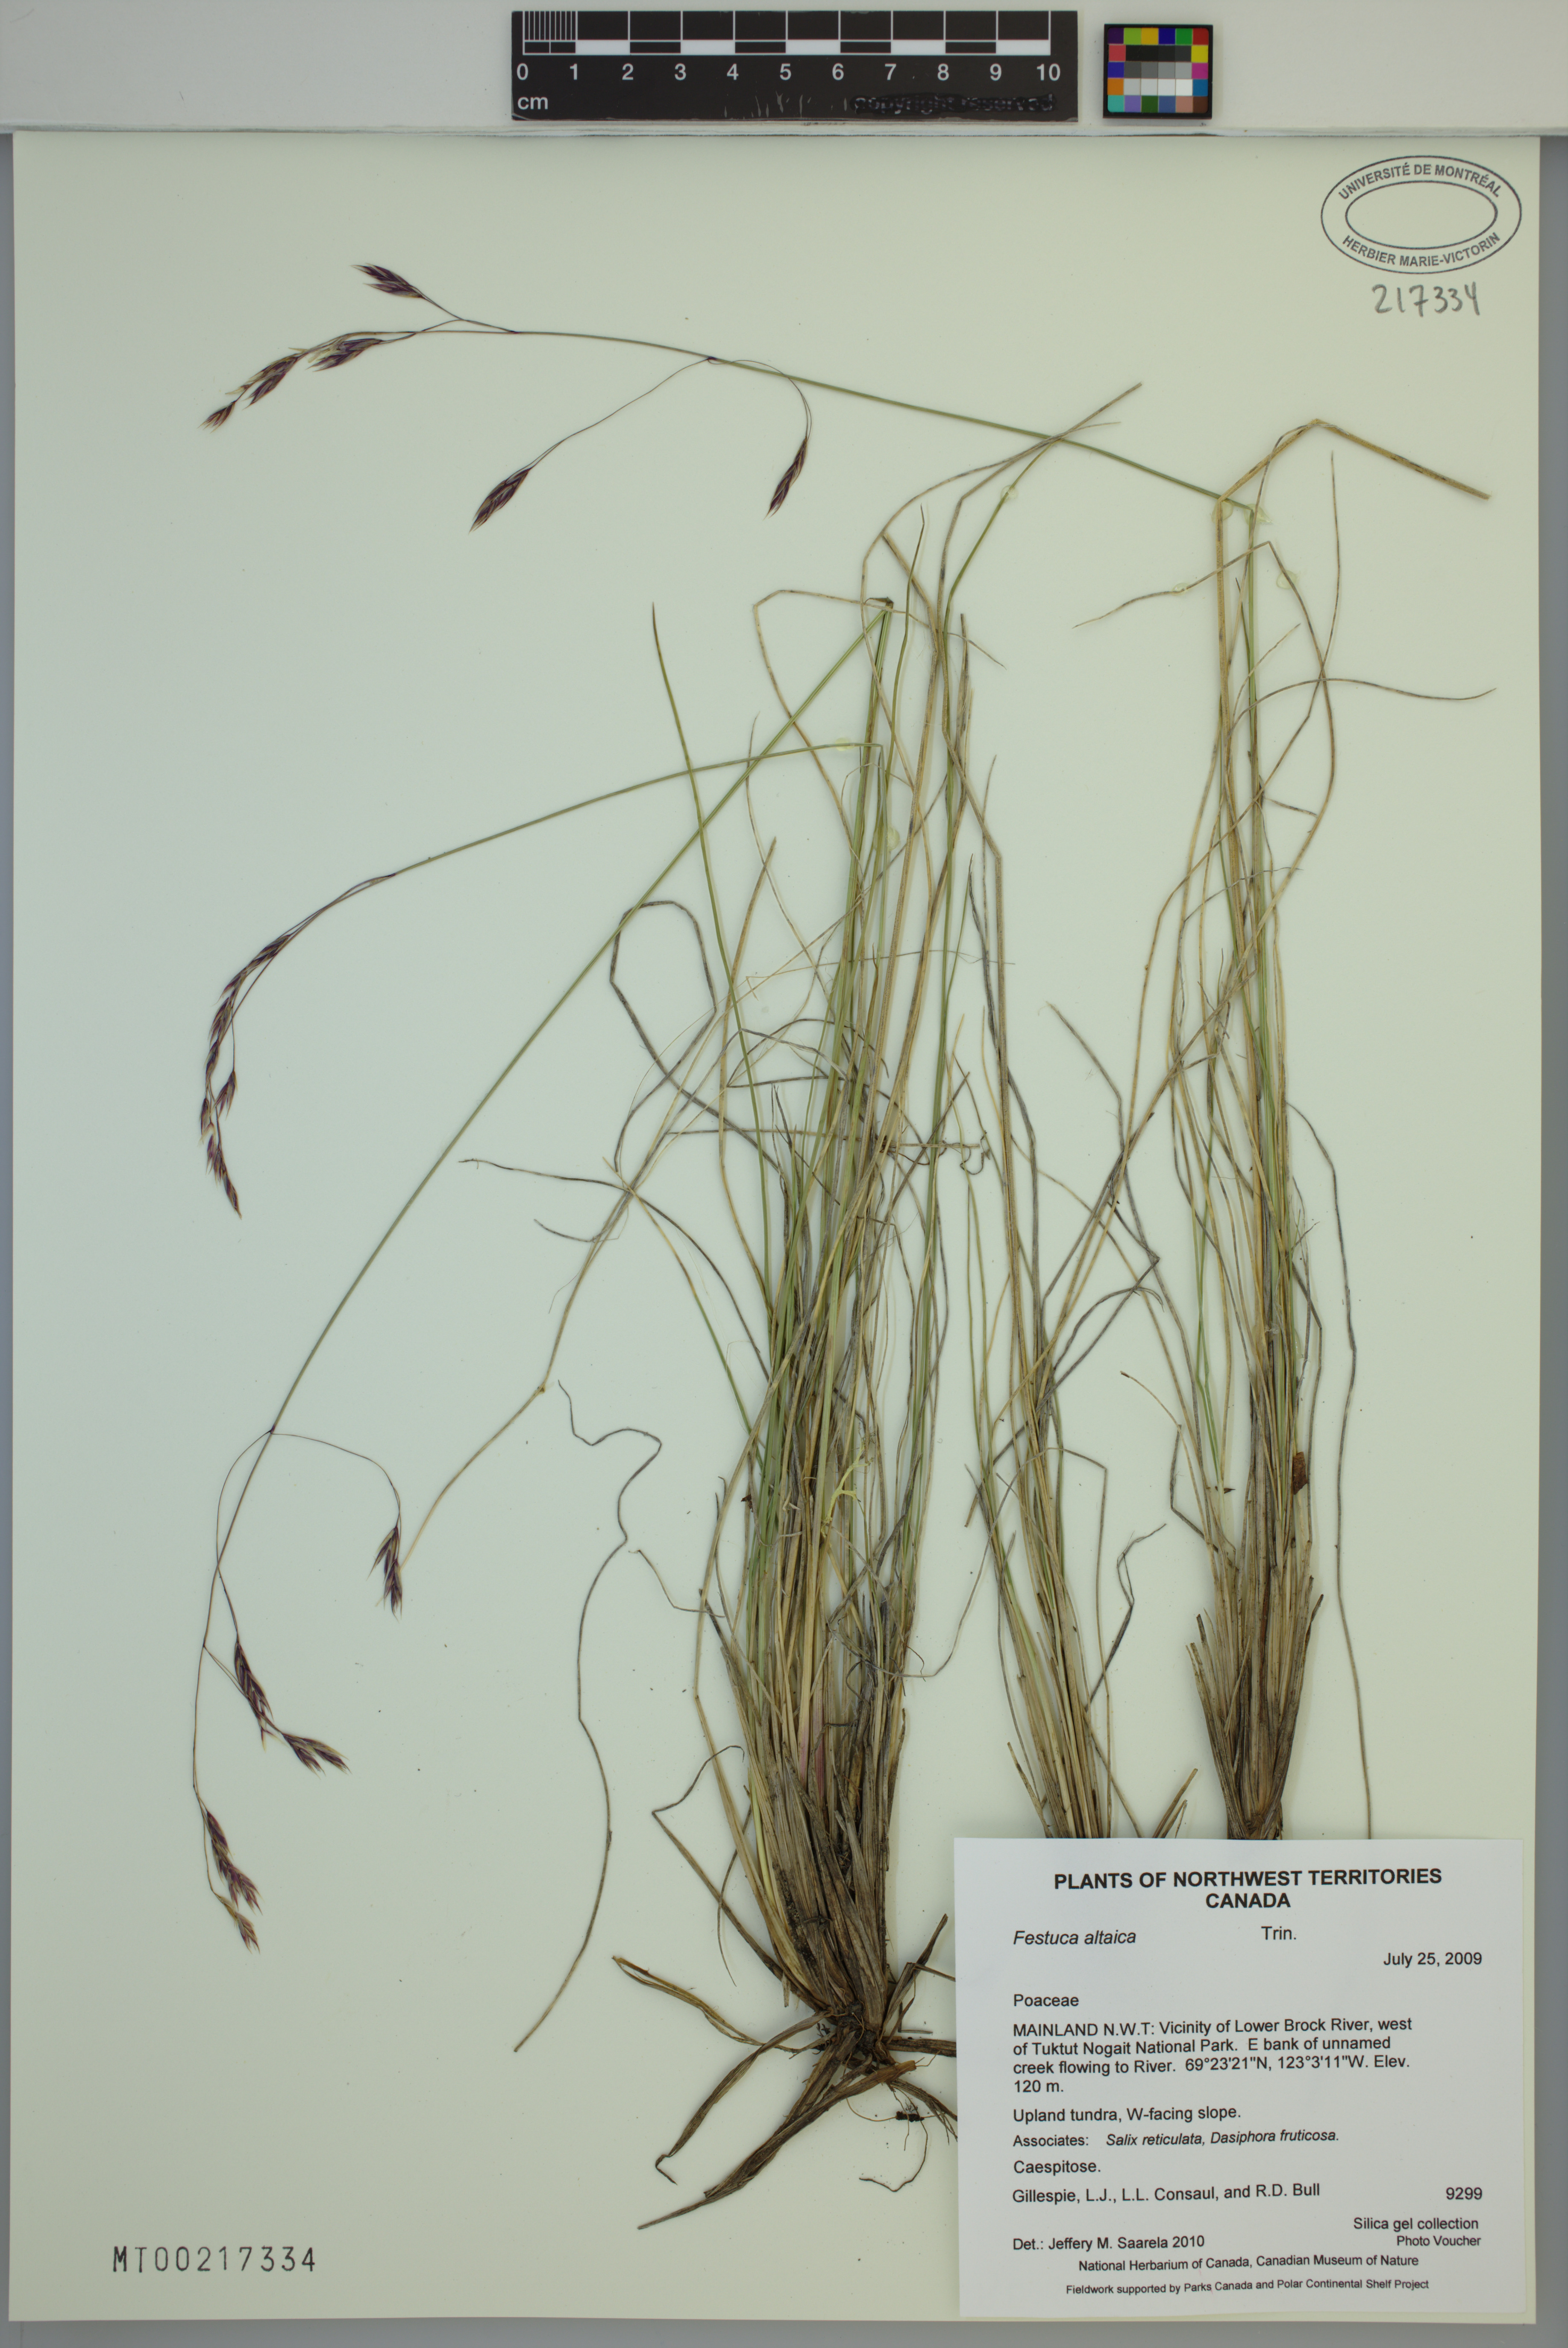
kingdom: Plantae
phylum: Tracheophyta
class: Liliopsida
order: Poales
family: Poaceae
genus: Festuca
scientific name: Festuca altaica
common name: Northern rough fescue
